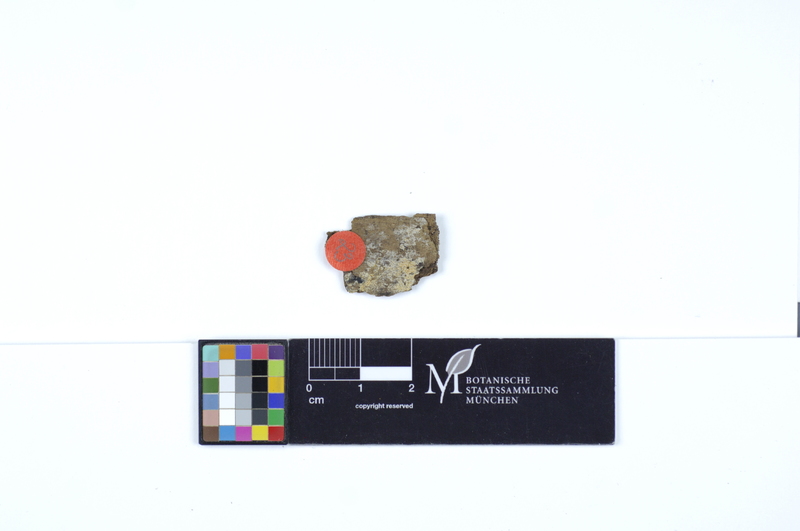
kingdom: Fungi
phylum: Basidiomycota
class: Agaricomycetes
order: Polyporales
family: Irpicaceae
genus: Ceriporia
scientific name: Ceriporia reticulata
